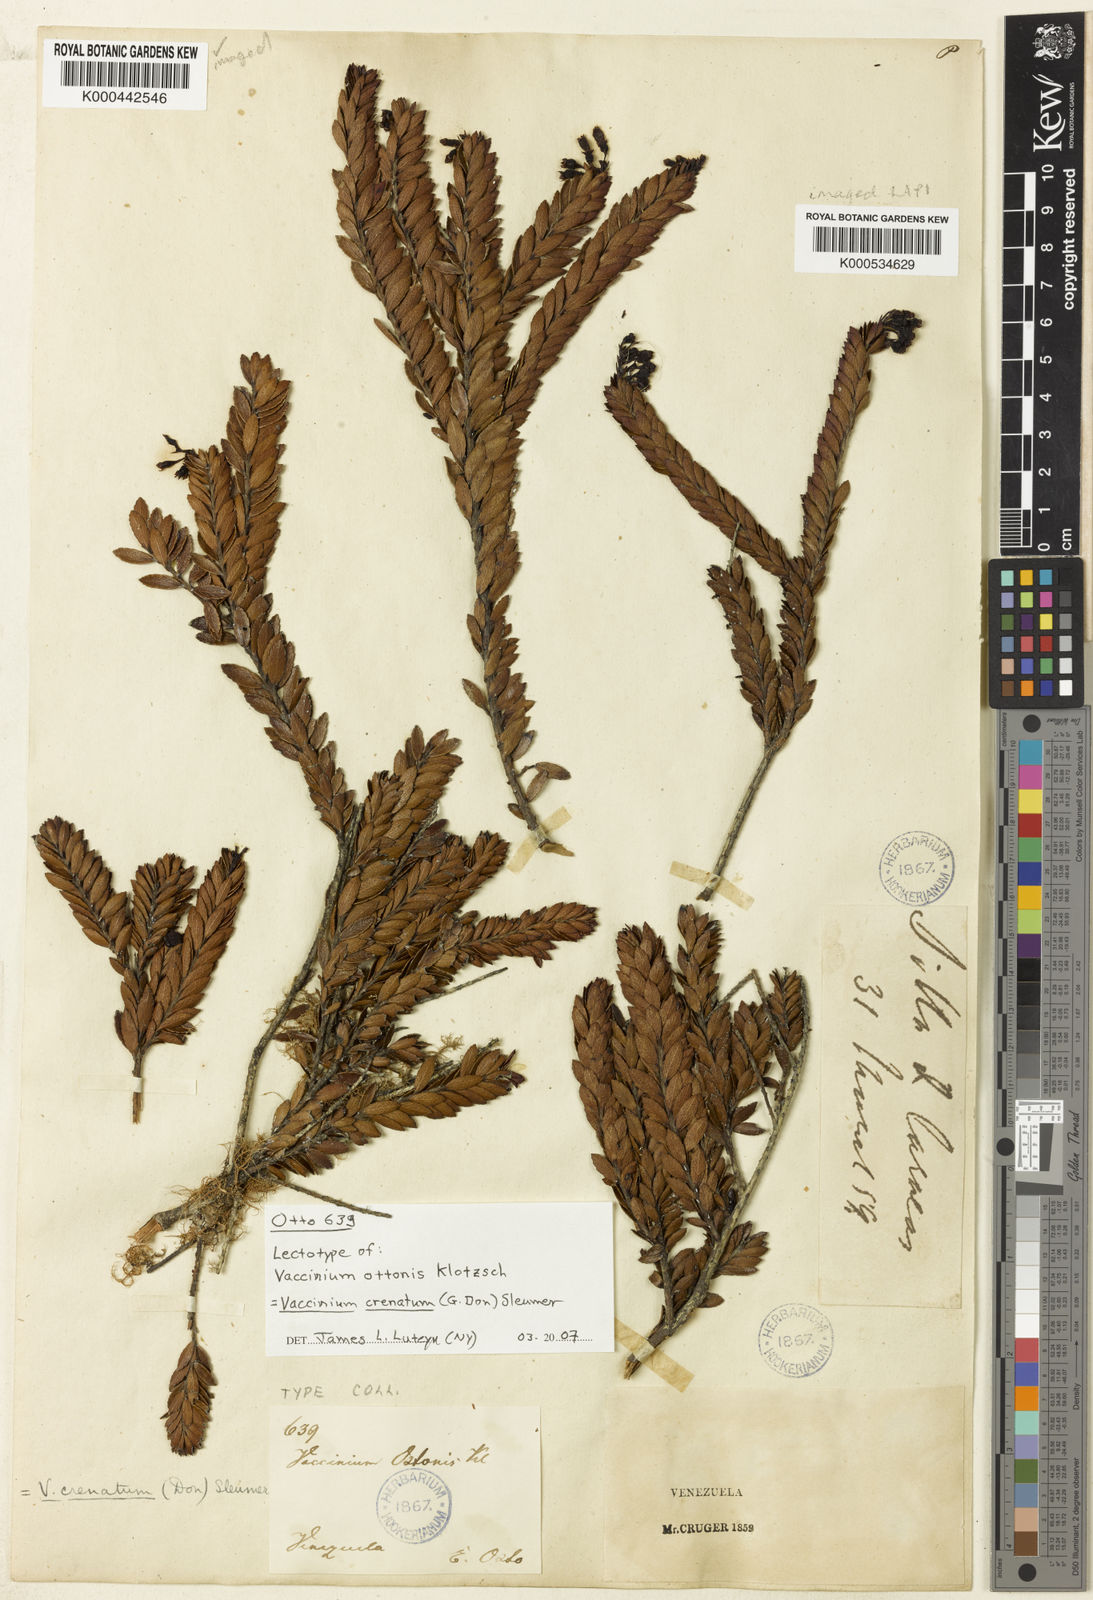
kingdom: Plantae
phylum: Tracheophyta
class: Polypodiopsida
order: Polypodiales
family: Athyriaceae
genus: Diplazium
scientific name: Diplazium stipitipinnula
